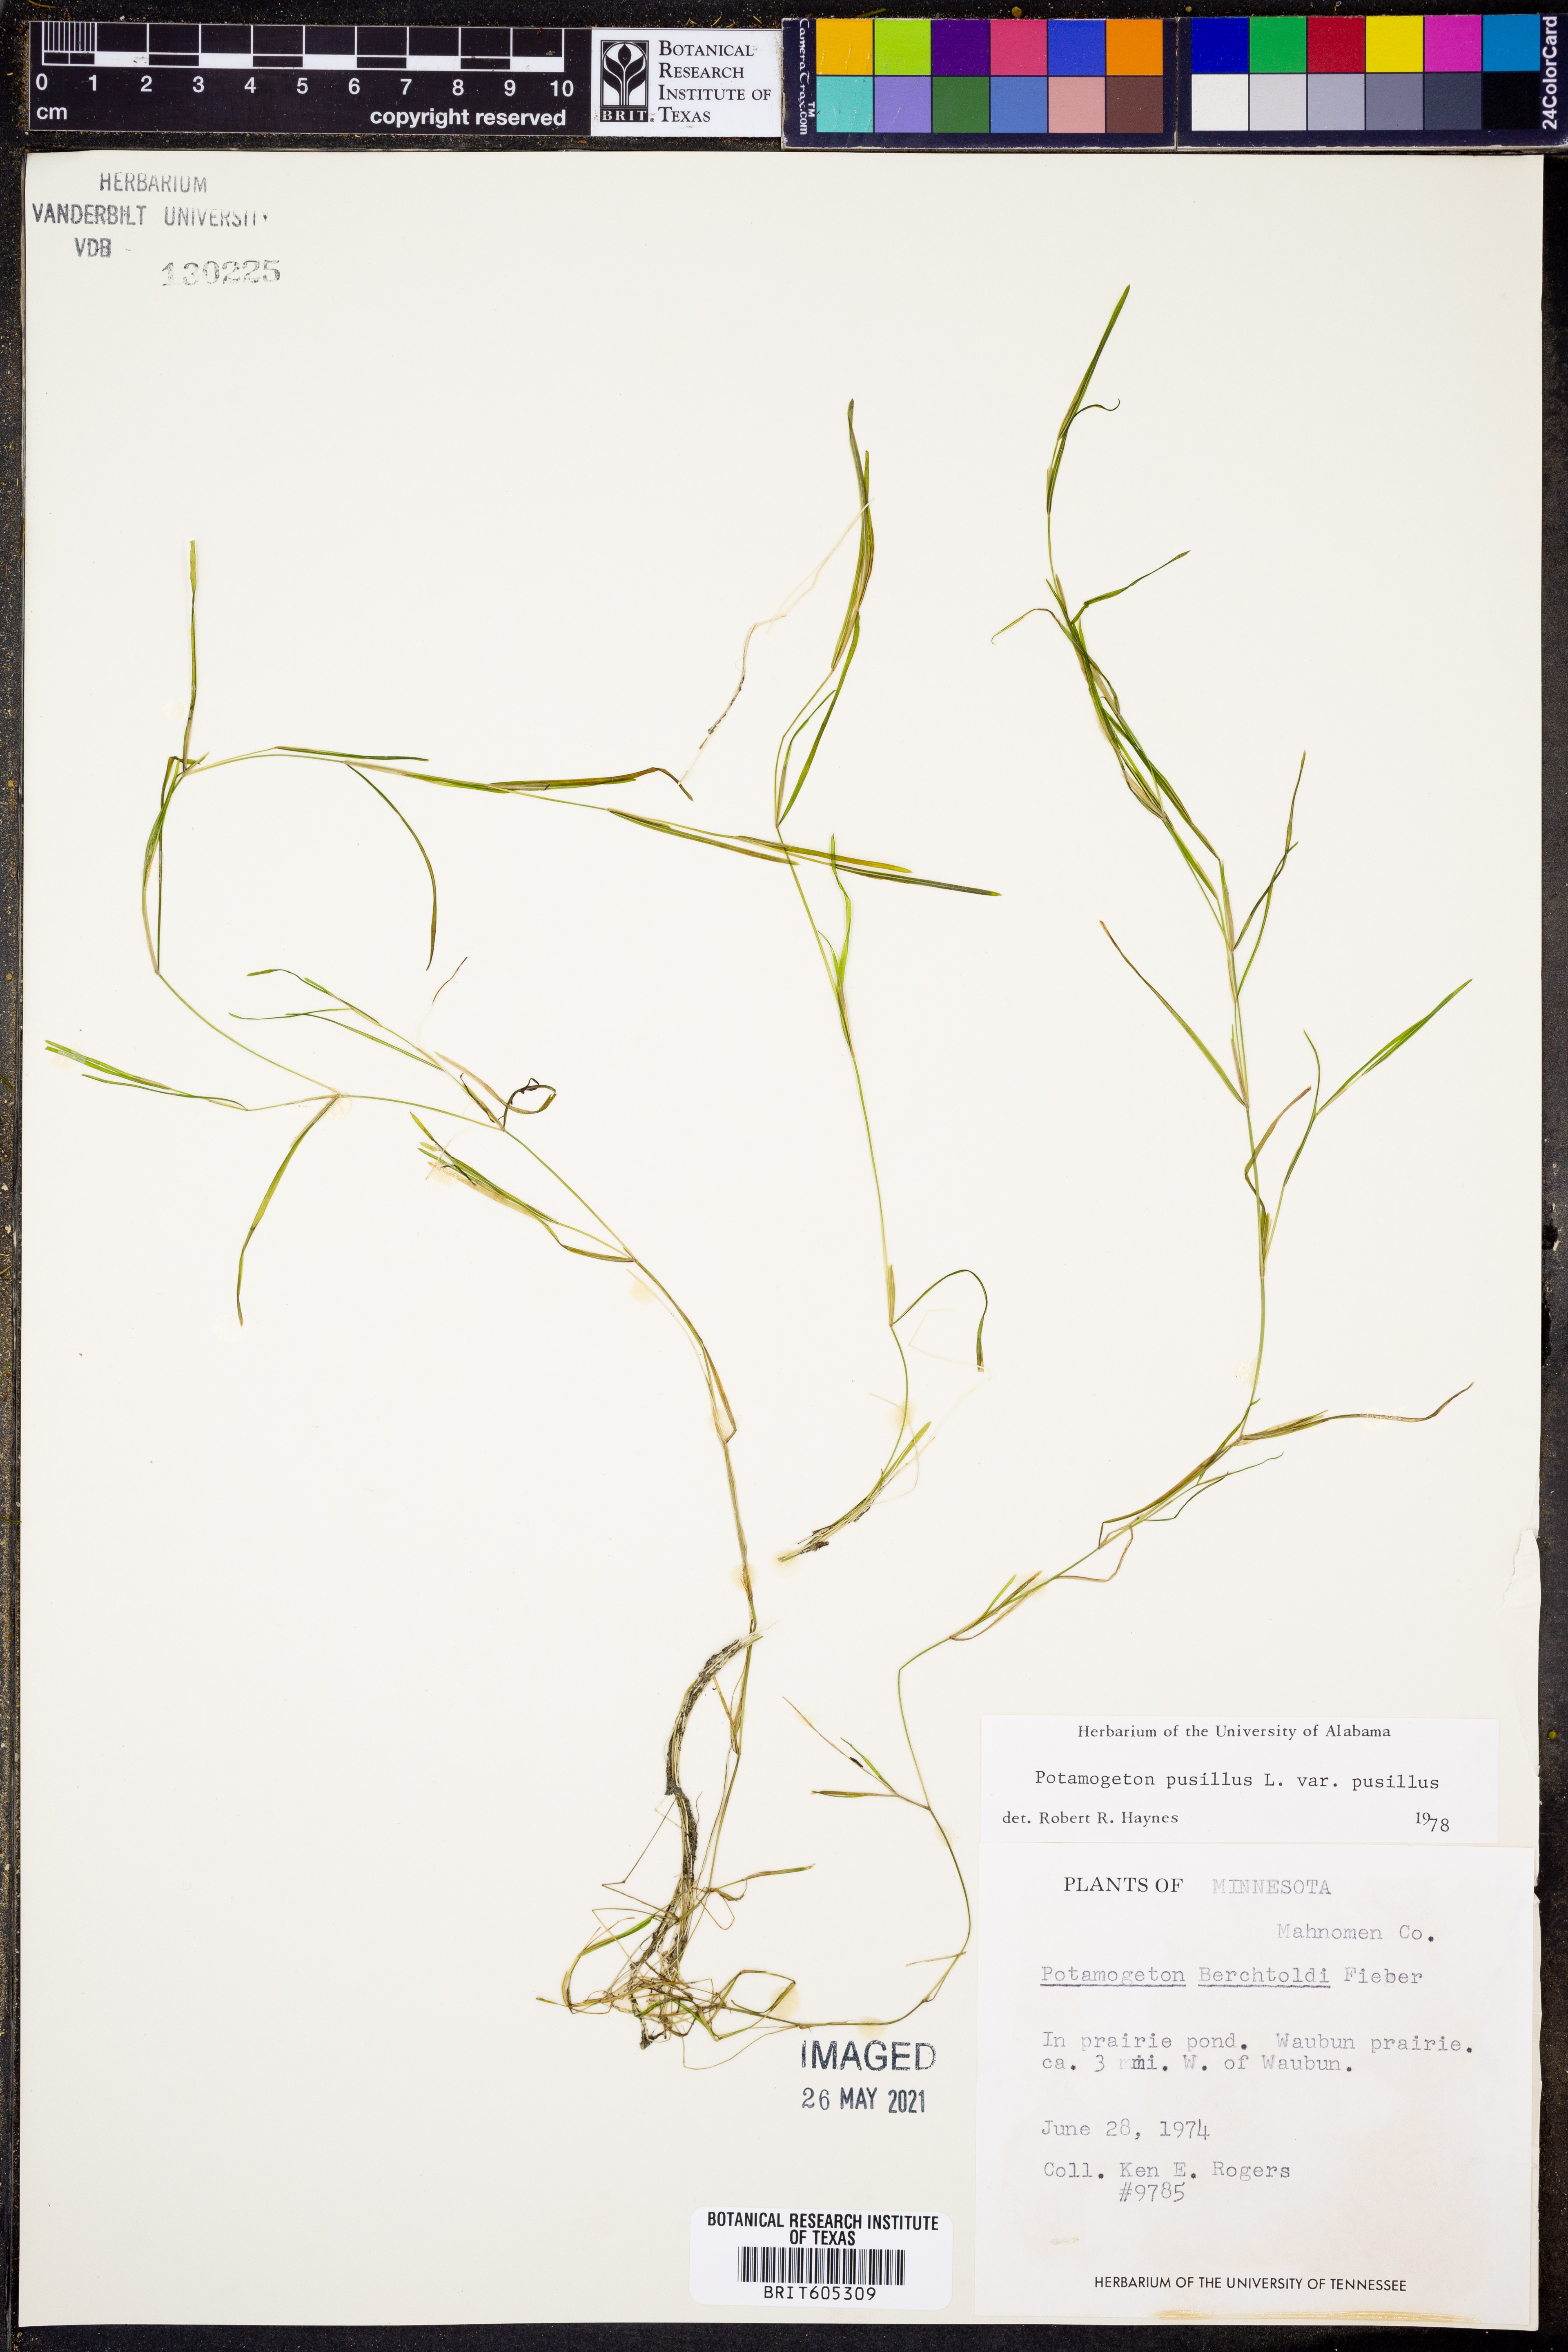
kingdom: Plantae
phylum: Tracheophyta
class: Liliopsida
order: Alismatales
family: Potamogetonaceae
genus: Potamogeton
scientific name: Potamogeton pusillus
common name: Lesser pondweed
